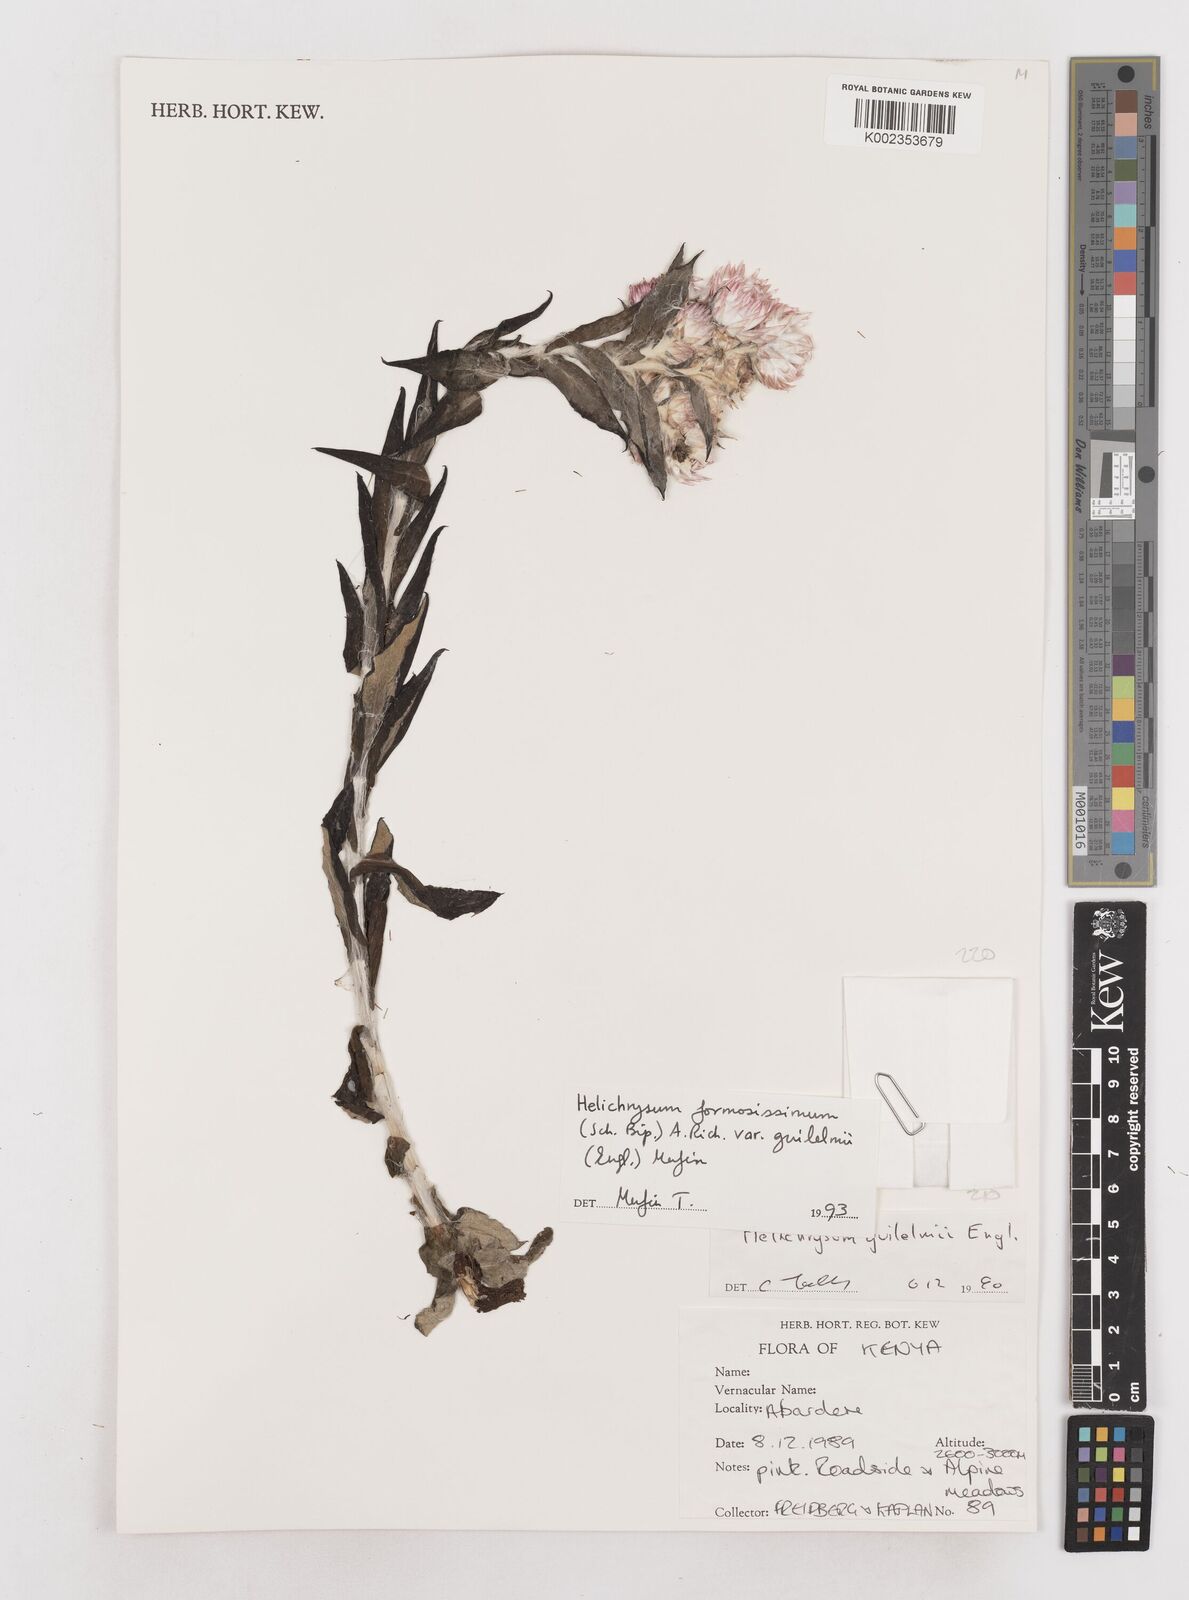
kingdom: Plantae
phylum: Tracheophyta
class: Magnoliopsida
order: Asterales
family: Asteraceae
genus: Helichrysum
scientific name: Helichrysum formosissimum
